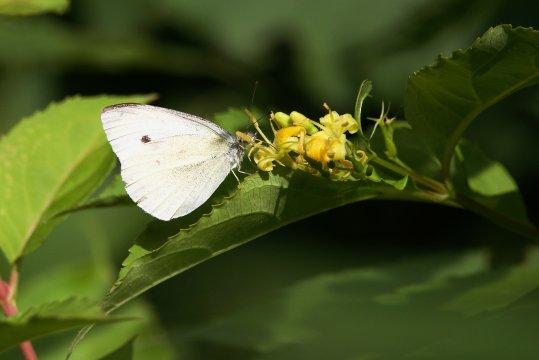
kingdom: Animalia
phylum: Arthropoda
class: Insecta
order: Lepidoptera
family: Pieridae
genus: Pieris
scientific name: Pieris rapae
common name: Cabbage White
